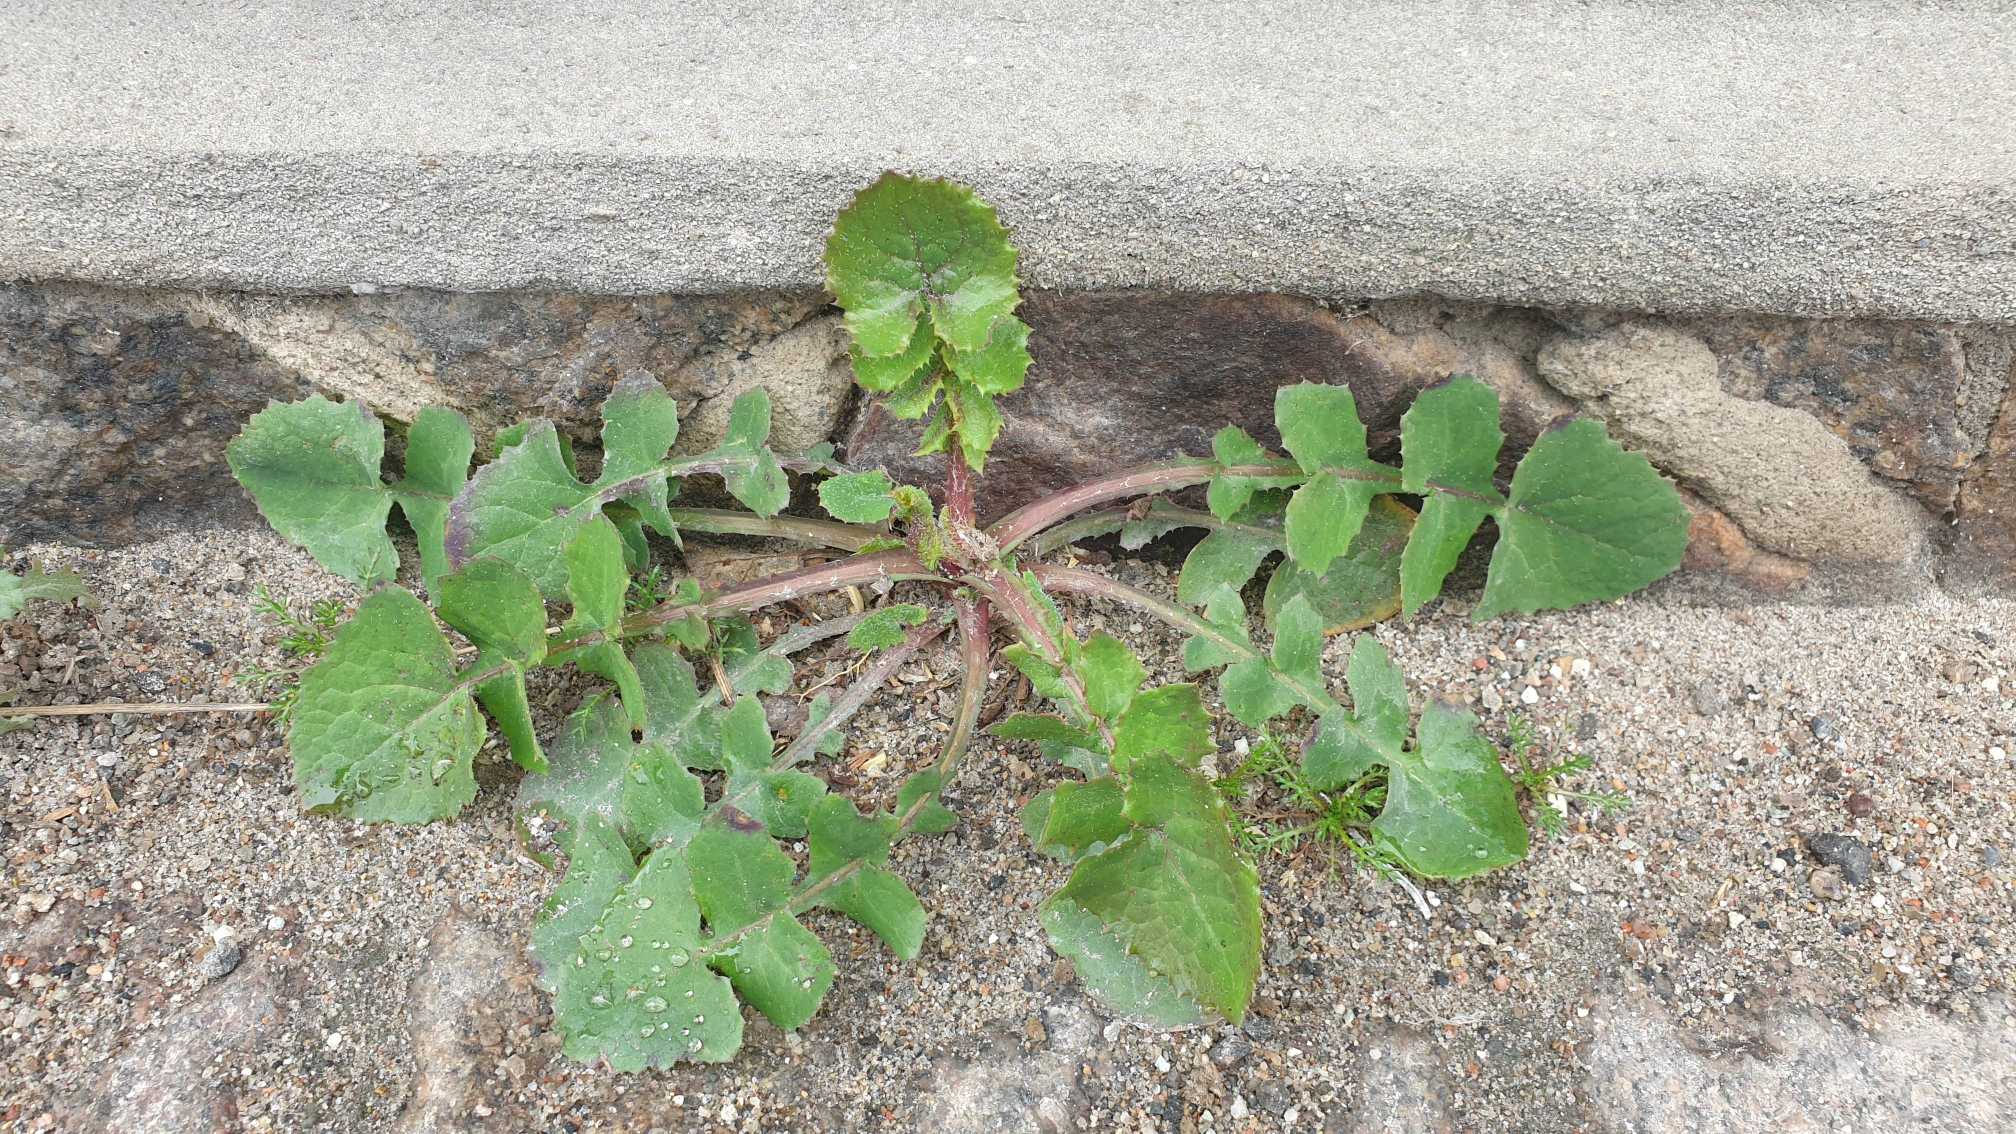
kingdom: Plantae
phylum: Tracheophyta
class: Magnoliopsida
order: Asterales
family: Asteraceae
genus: Sonchus
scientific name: Sonchus oleraceus
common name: Almindelig svinemælk
